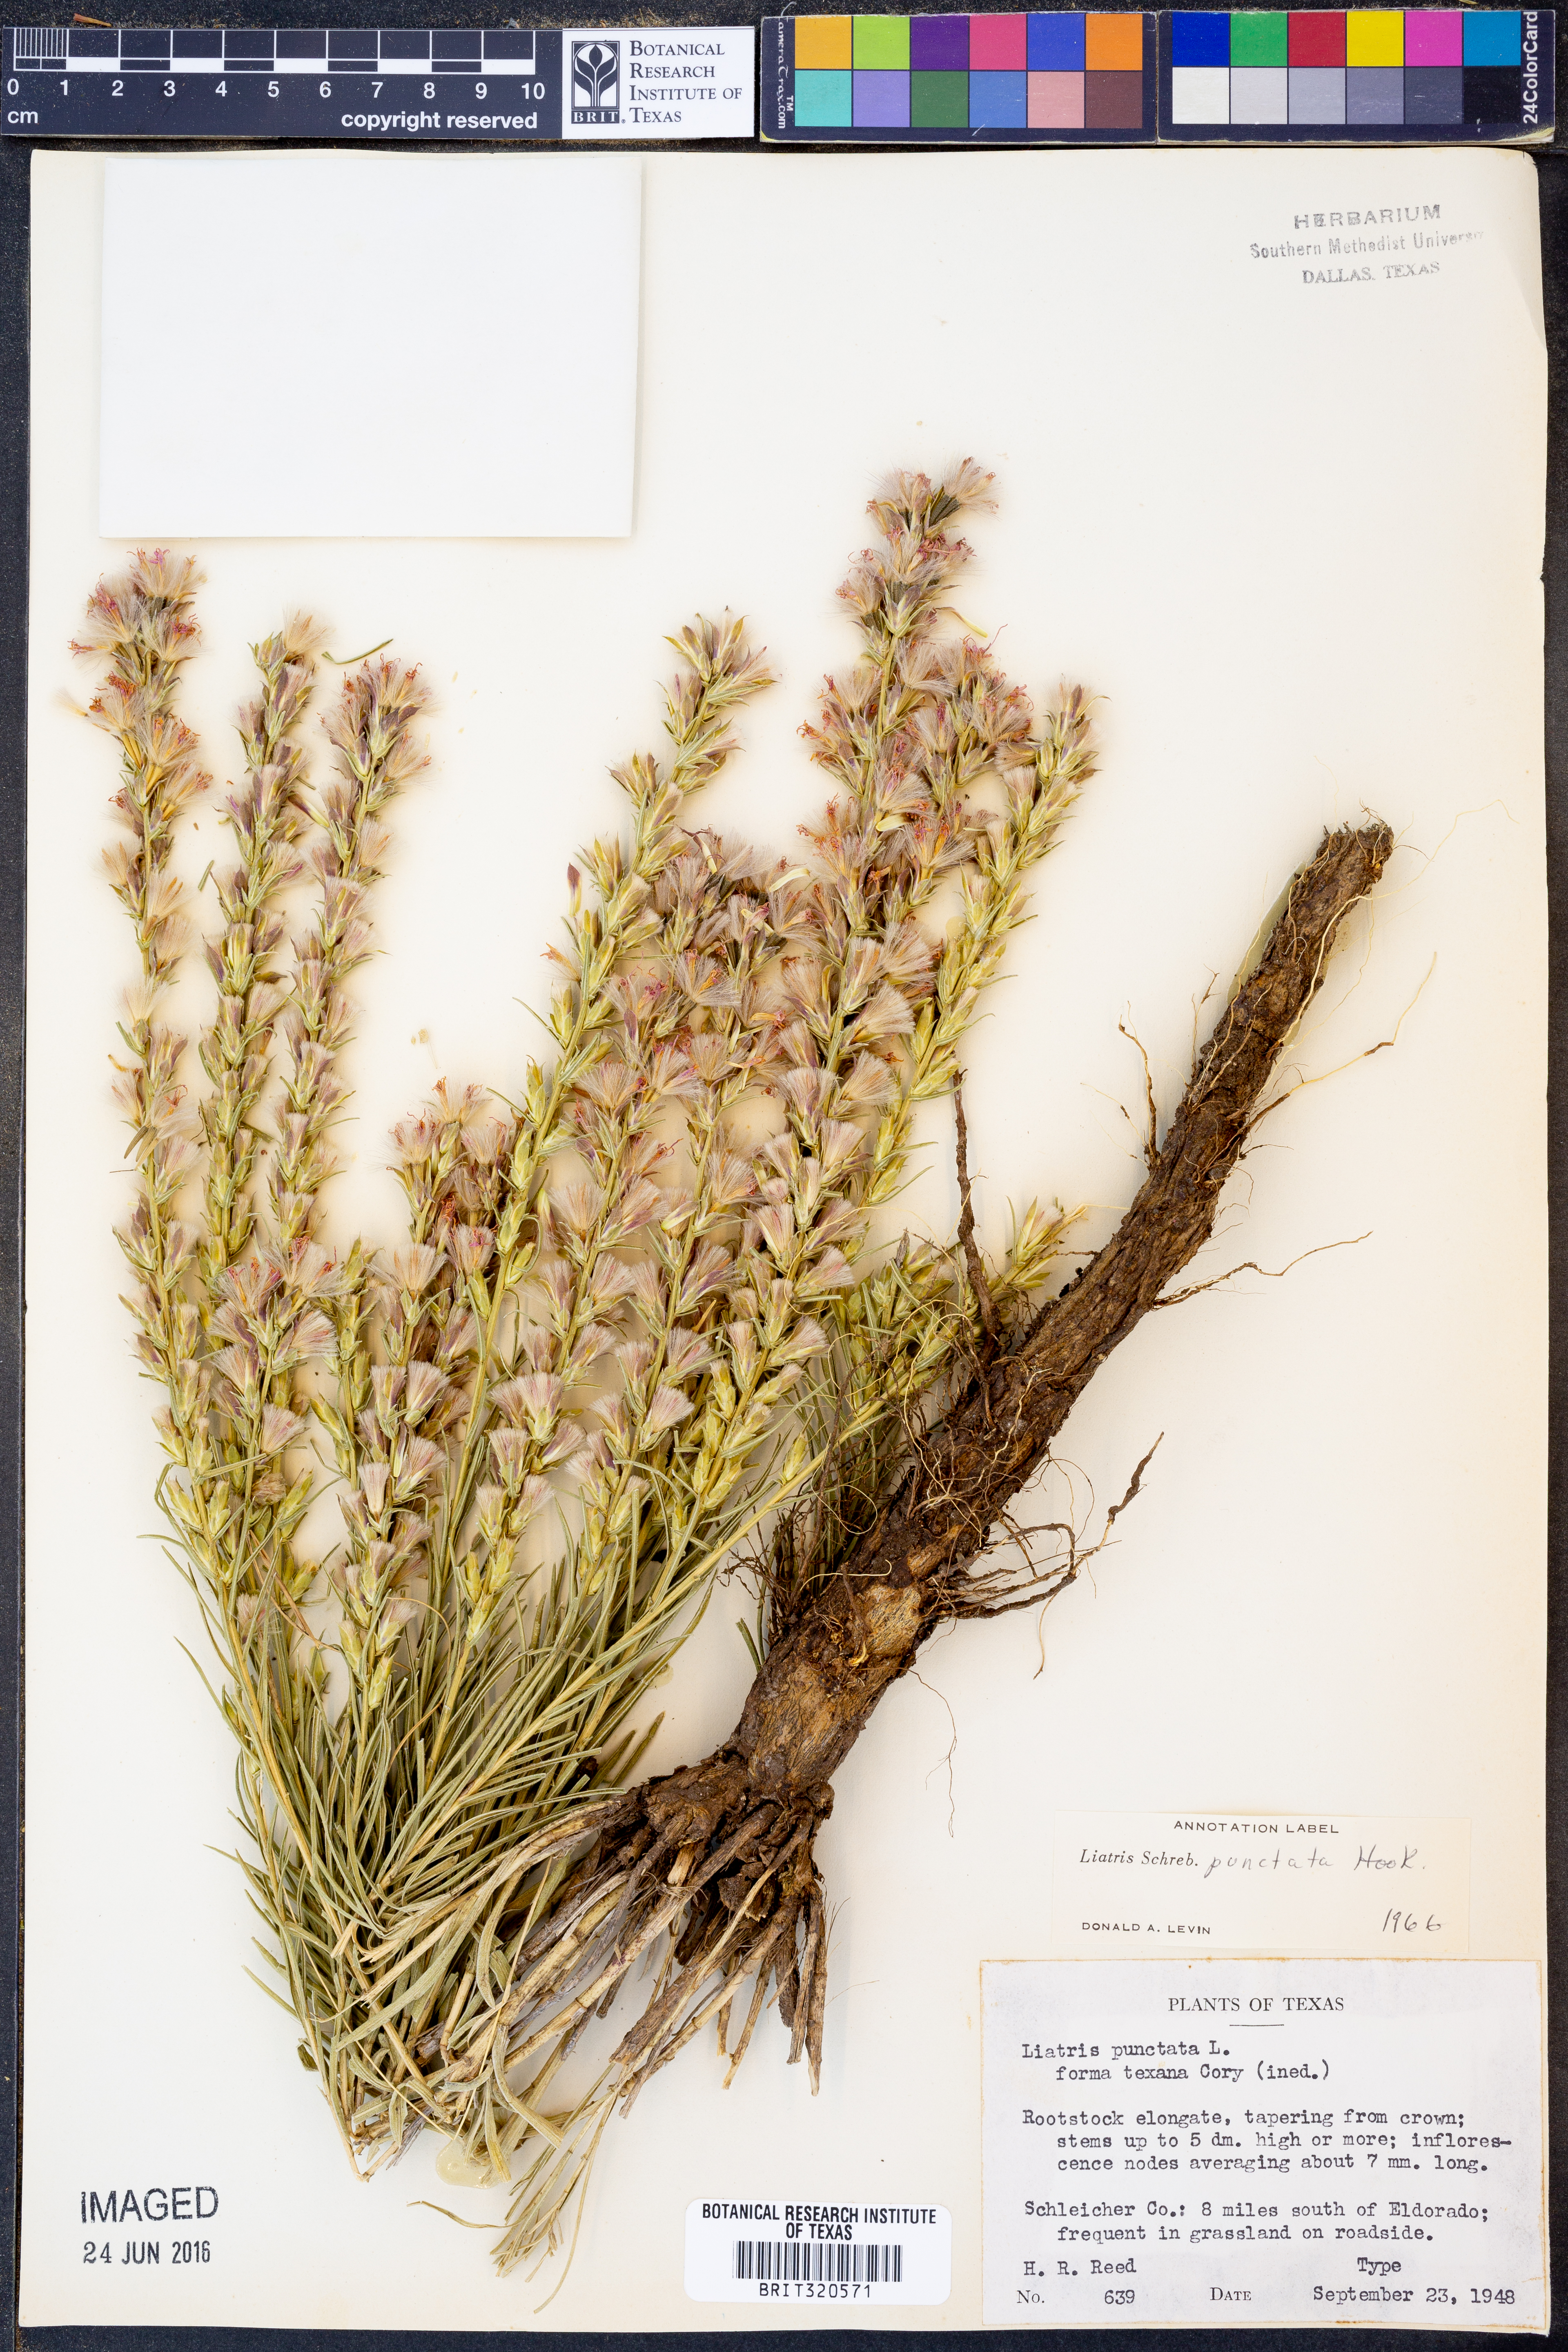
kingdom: Plantae
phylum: Tracheophyta
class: Magnoliopsida
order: Asterales
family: Asteraceae
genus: Liatris
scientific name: Liatris punctata
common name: Dotted gayfeather
